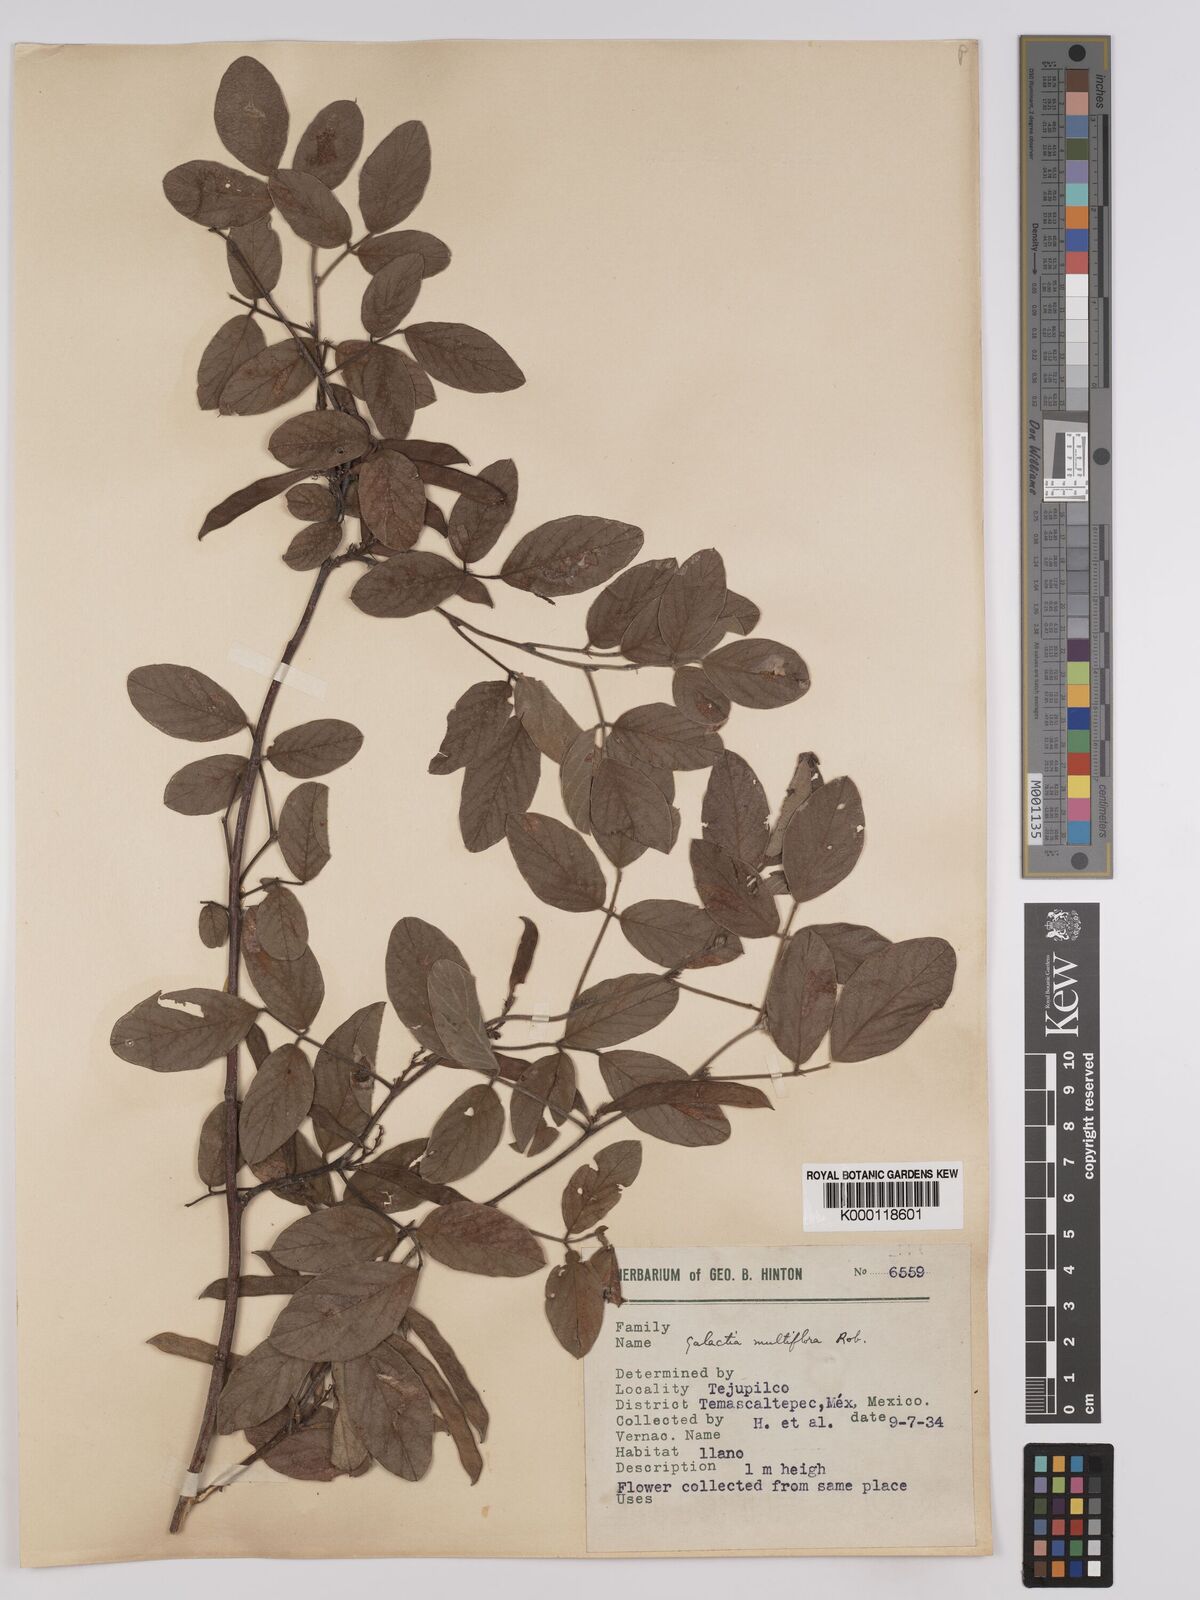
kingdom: Plantae
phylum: Tracheophyta
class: Magnoliopsida
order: Fabales
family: Fabaceae
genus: Galactia
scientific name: Galactia multiflora
